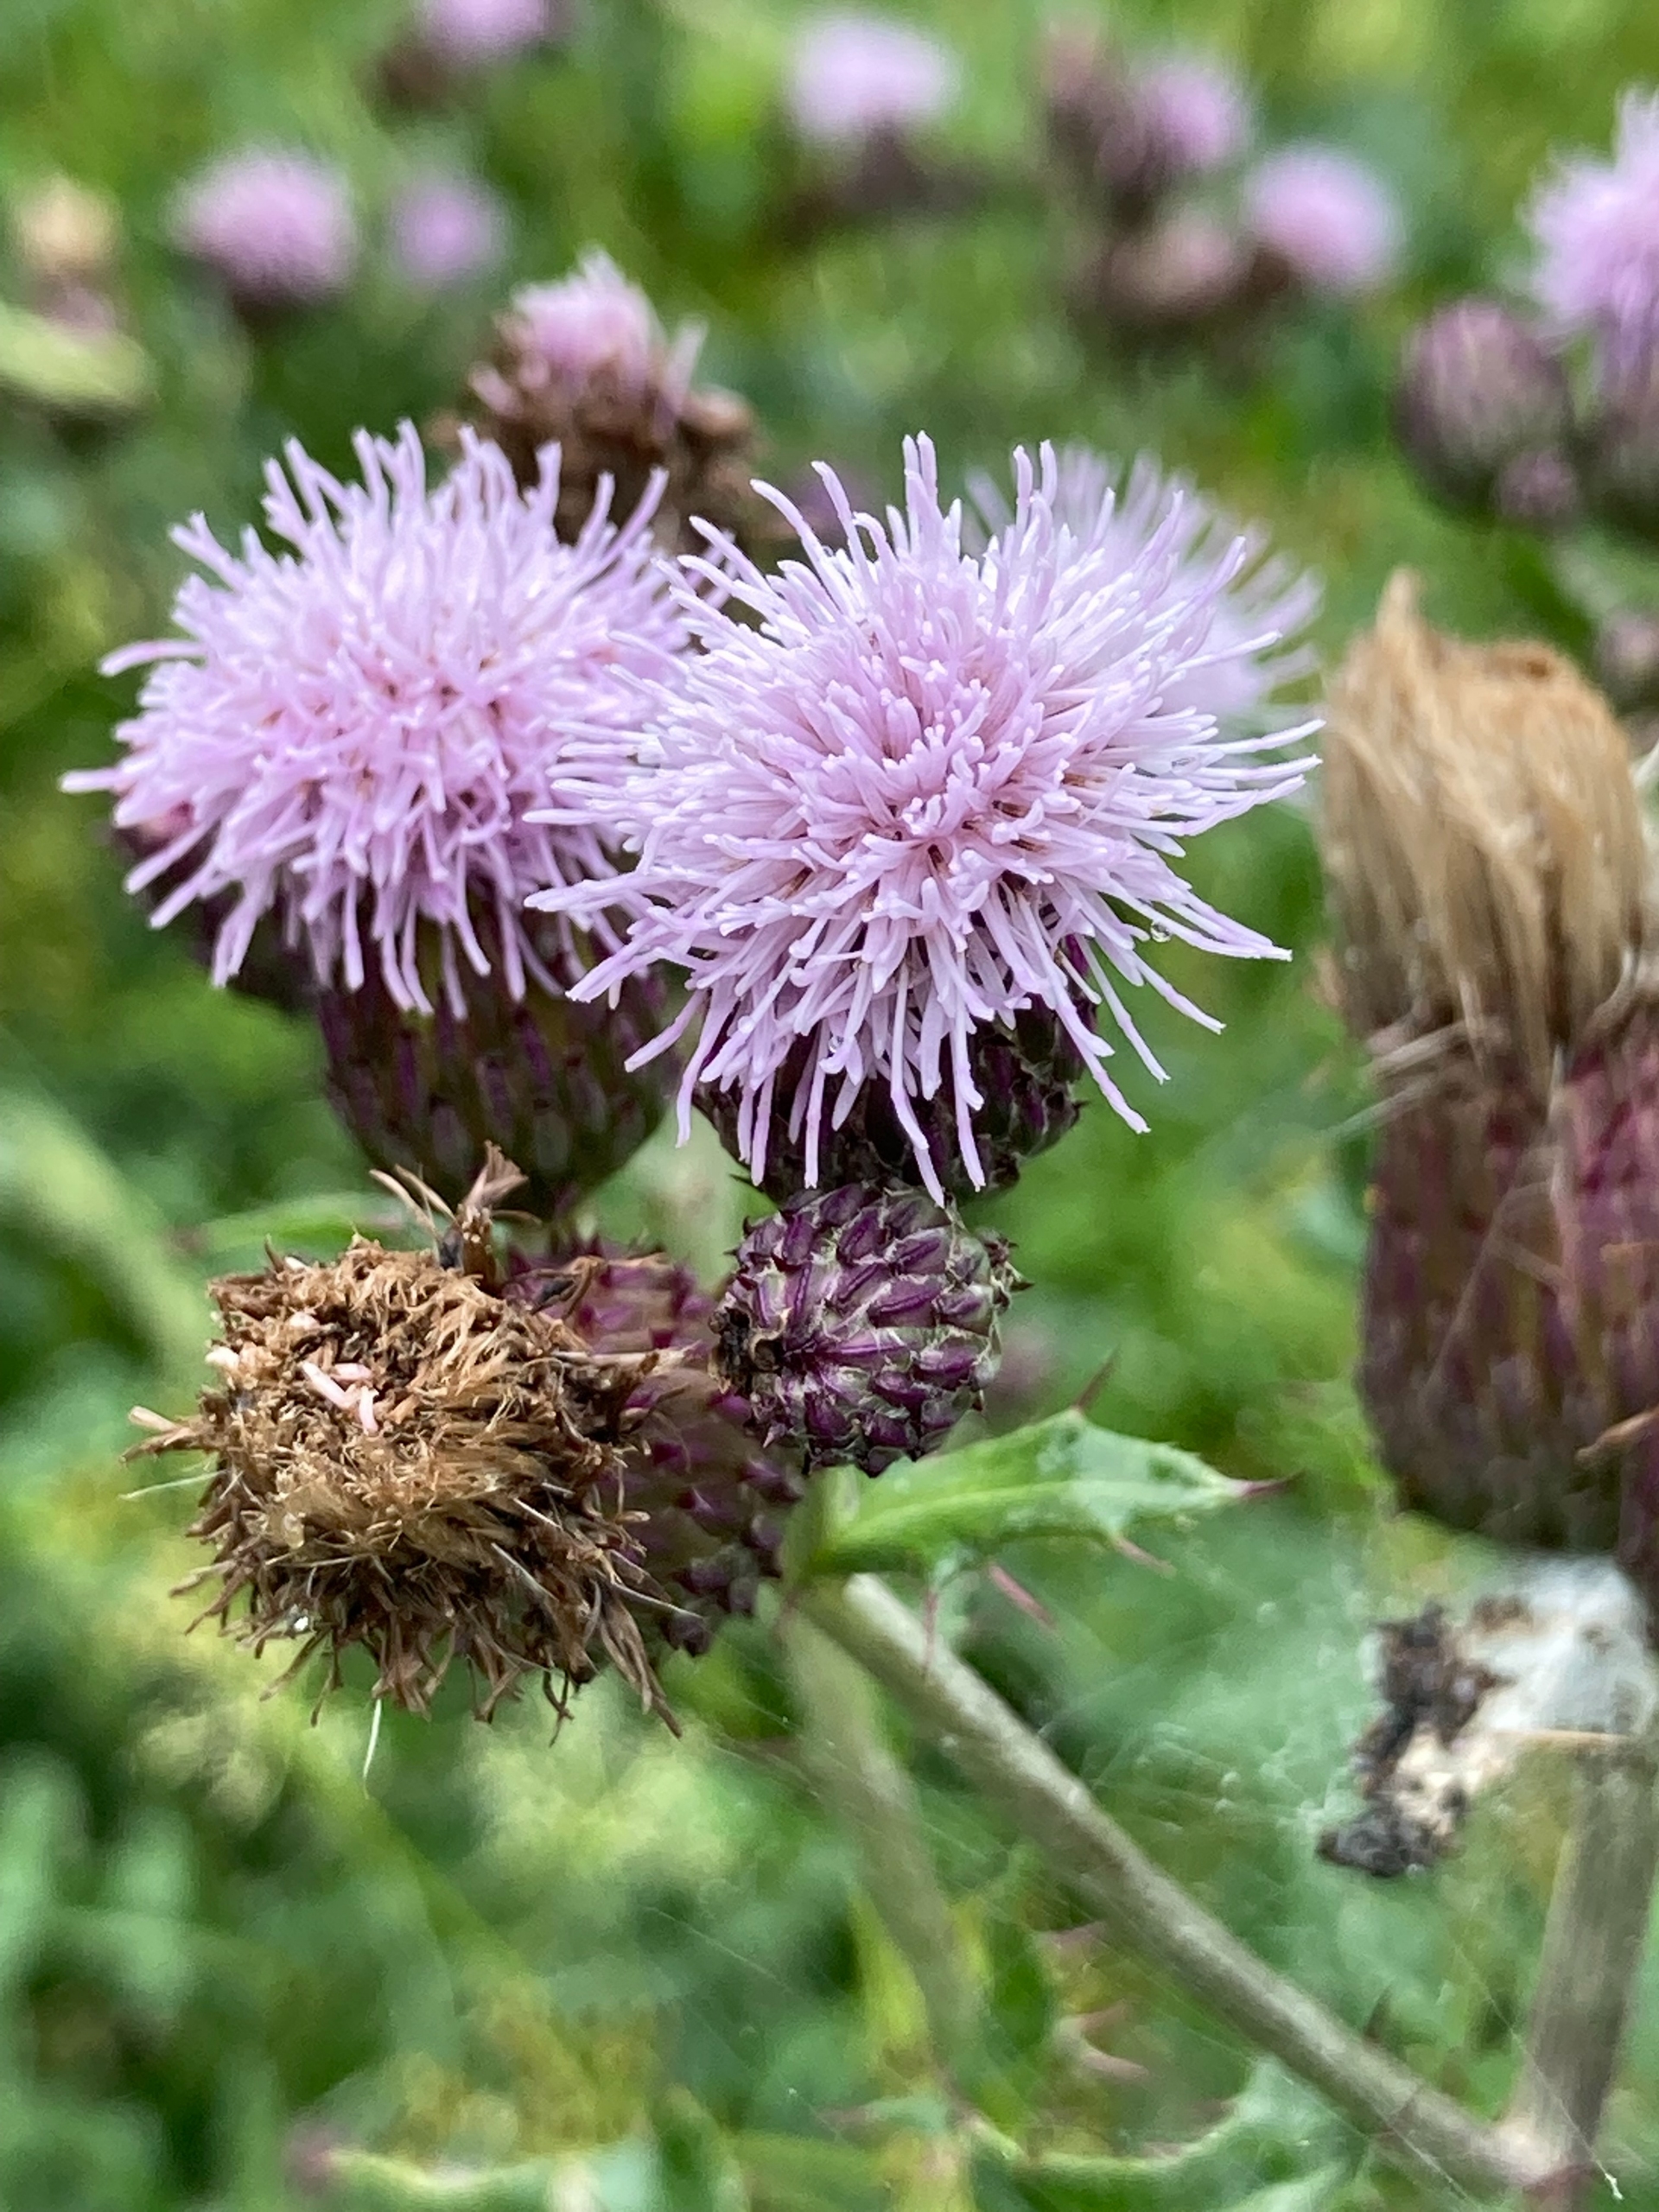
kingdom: Plantae
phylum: Tracheophyta
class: Magnoliopsida
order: Asterales
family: Asteraceae
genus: Cirsium
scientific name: Cirsium arvense
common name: Ager-tidsel
